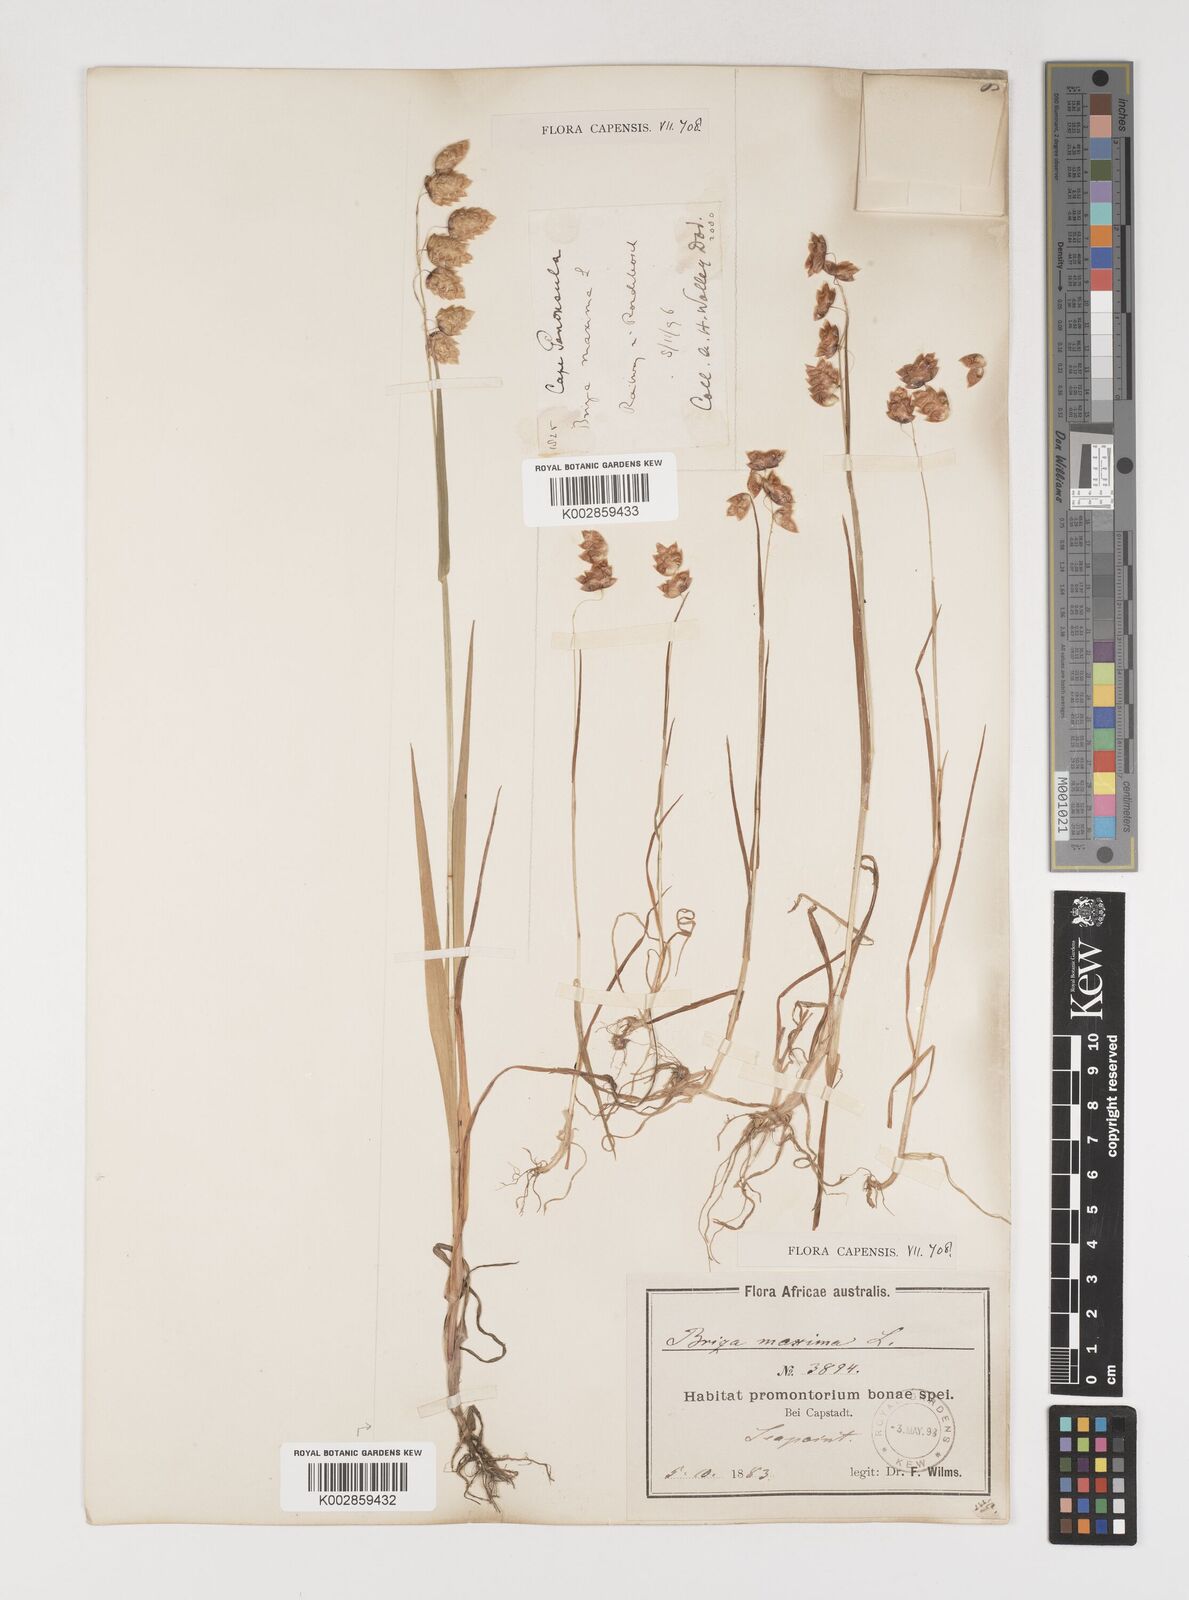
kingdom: Plantae
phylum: Tracheophyta
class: Liliopsida
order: Poales
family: Poaceae
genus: Briza
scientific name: Briza maxima
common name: Big quakinggrass
